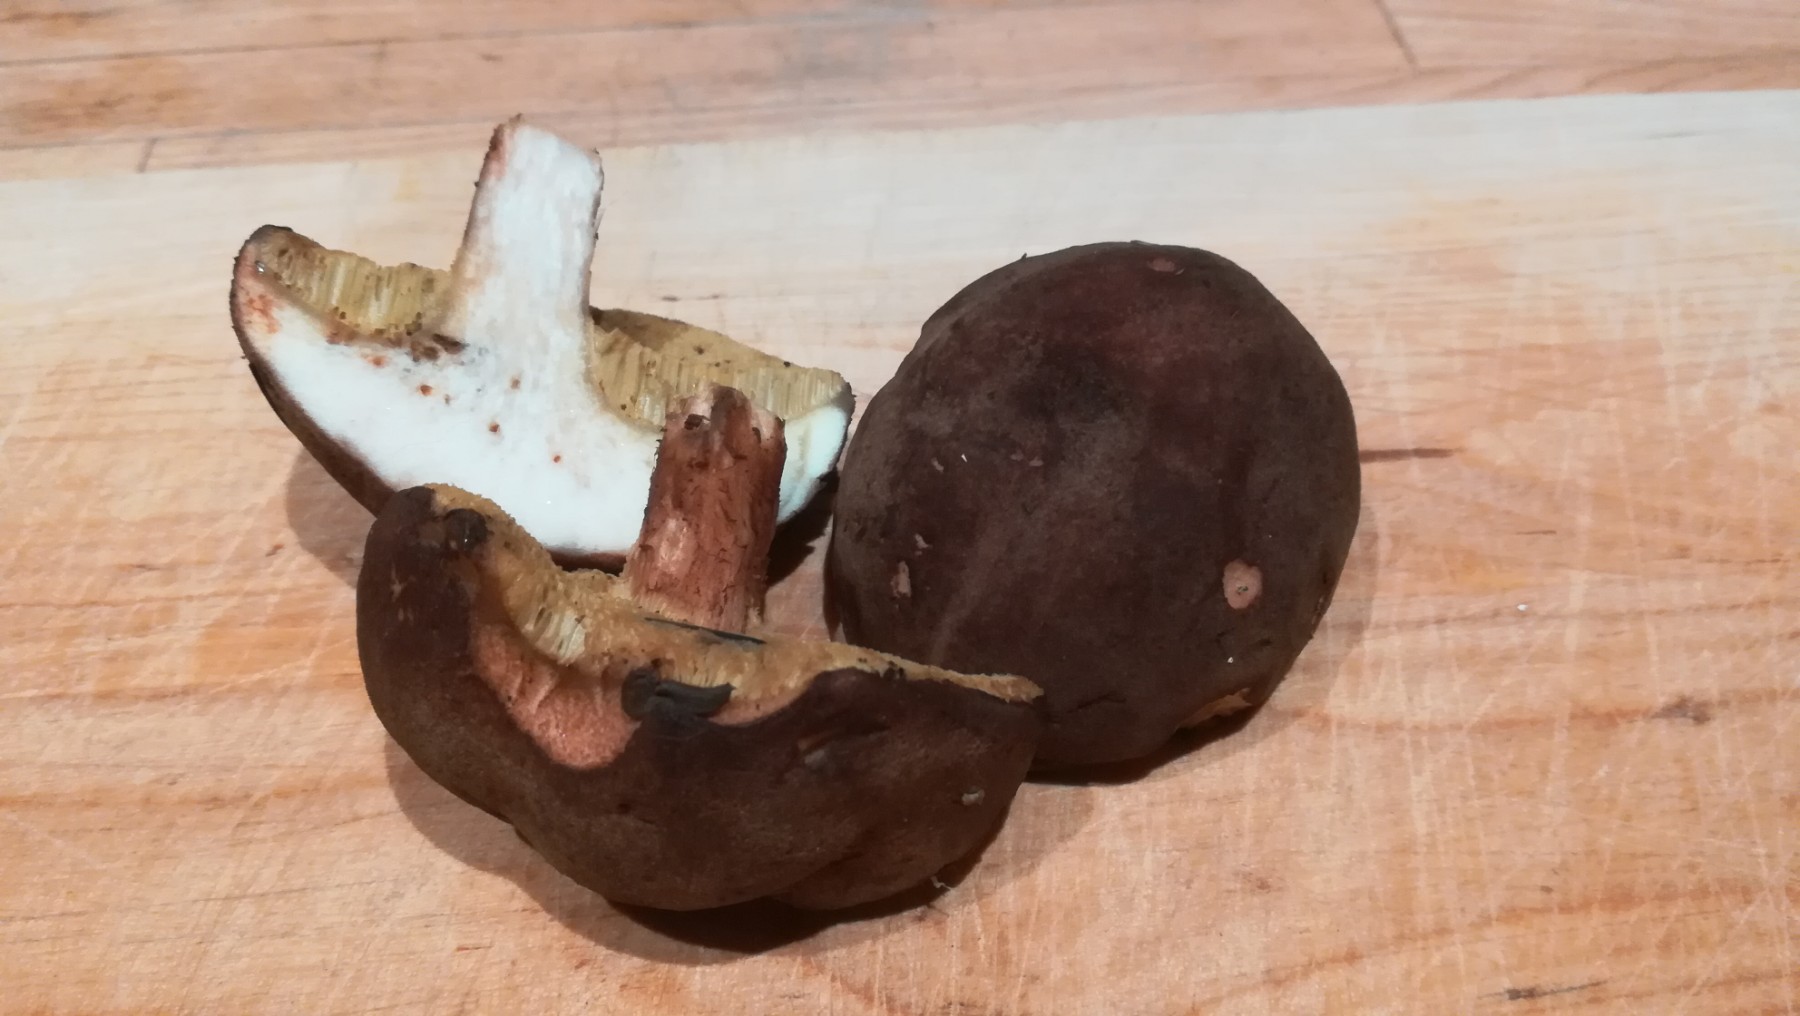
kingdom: Fungi
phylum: Basidiomycota
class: Agaricomycetes
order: Boletales
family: Boletaceae
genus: Xerocomus
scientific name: Xerocomus
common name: filtrørhat
